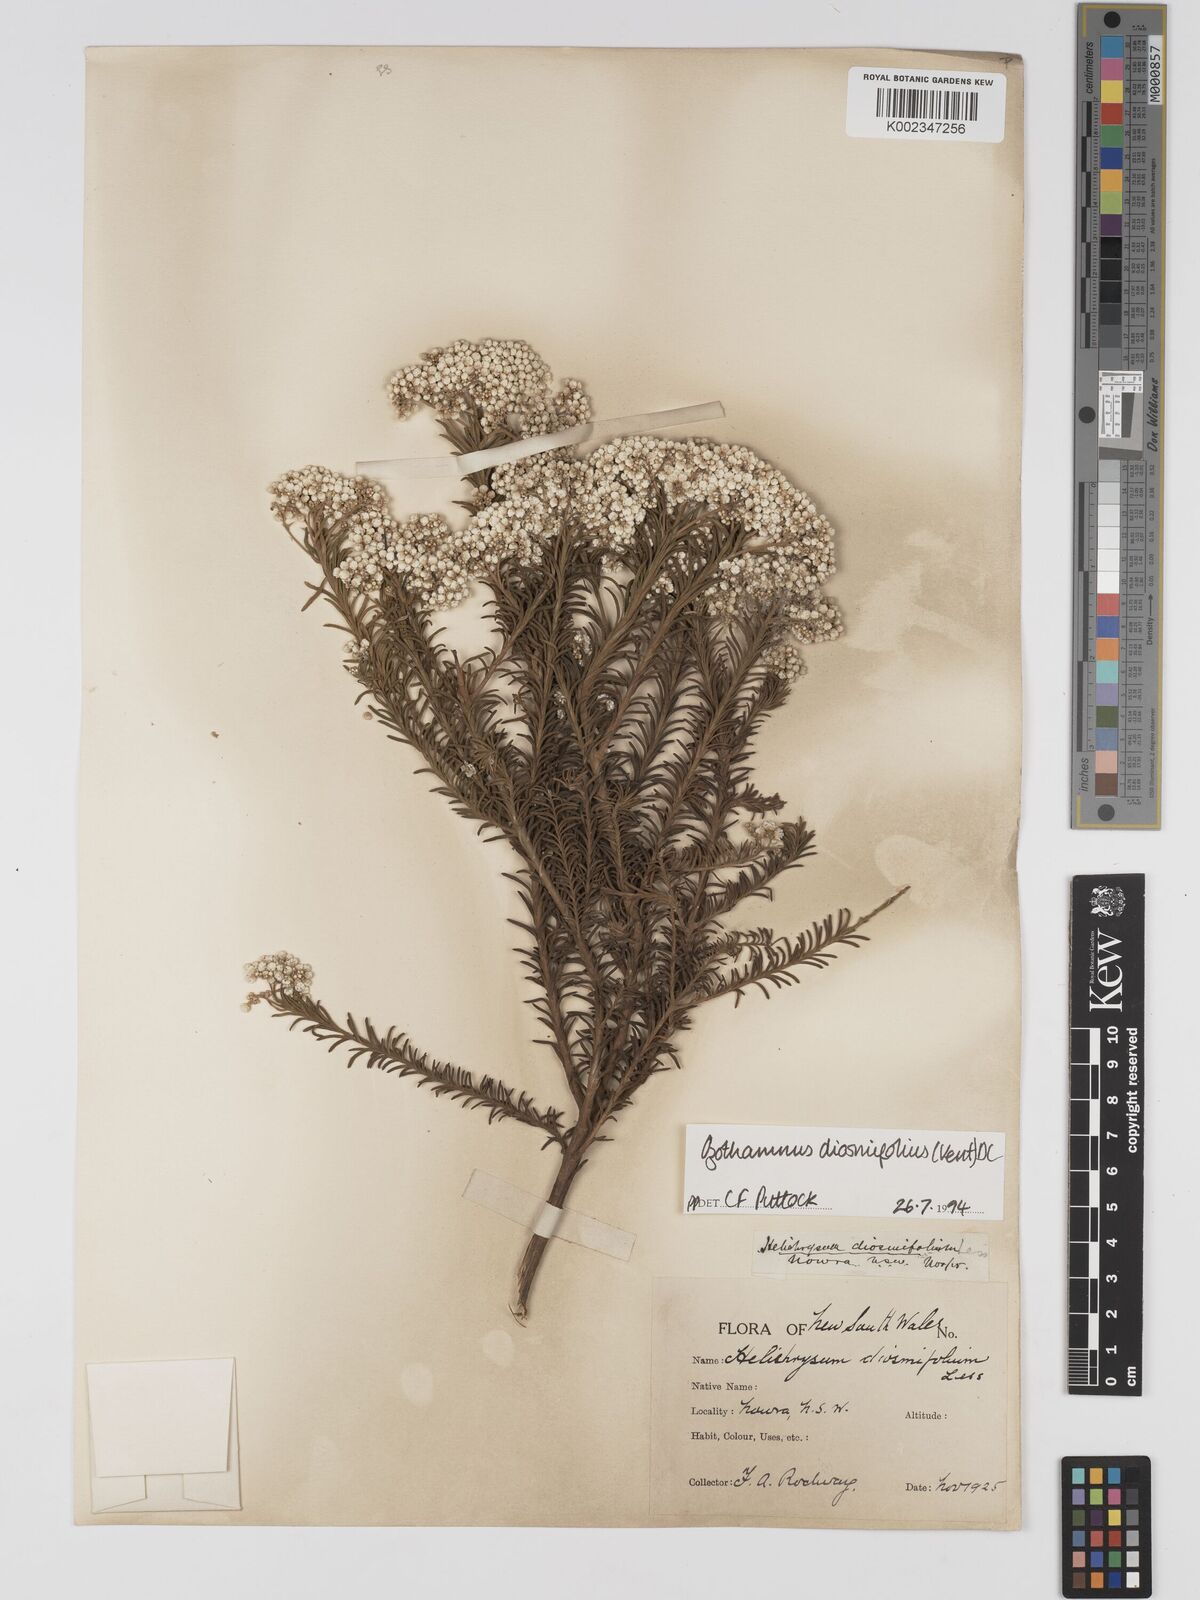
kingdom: Plantae
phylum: Tracheophyta
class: Magnoliopsida
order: Asterales
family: Asteraceae
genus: Ozothamnus
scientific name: Ozothamnus diosmifolius
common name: White-dogwood
